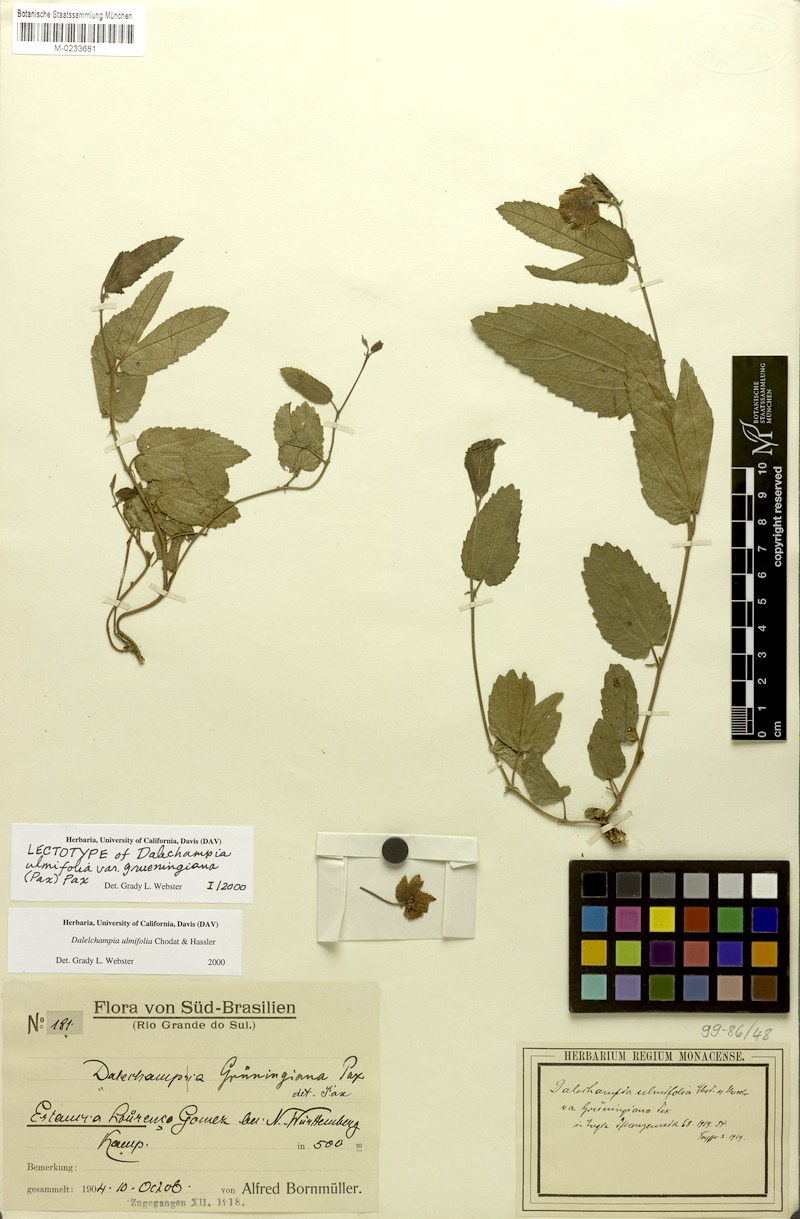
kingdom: Plantae
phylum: Tracheophyta
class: Magnoliopsida
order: Malpighiales
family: Euphorbiaceae
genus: Dalechampia
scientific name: Dalechampia ulmifolia
